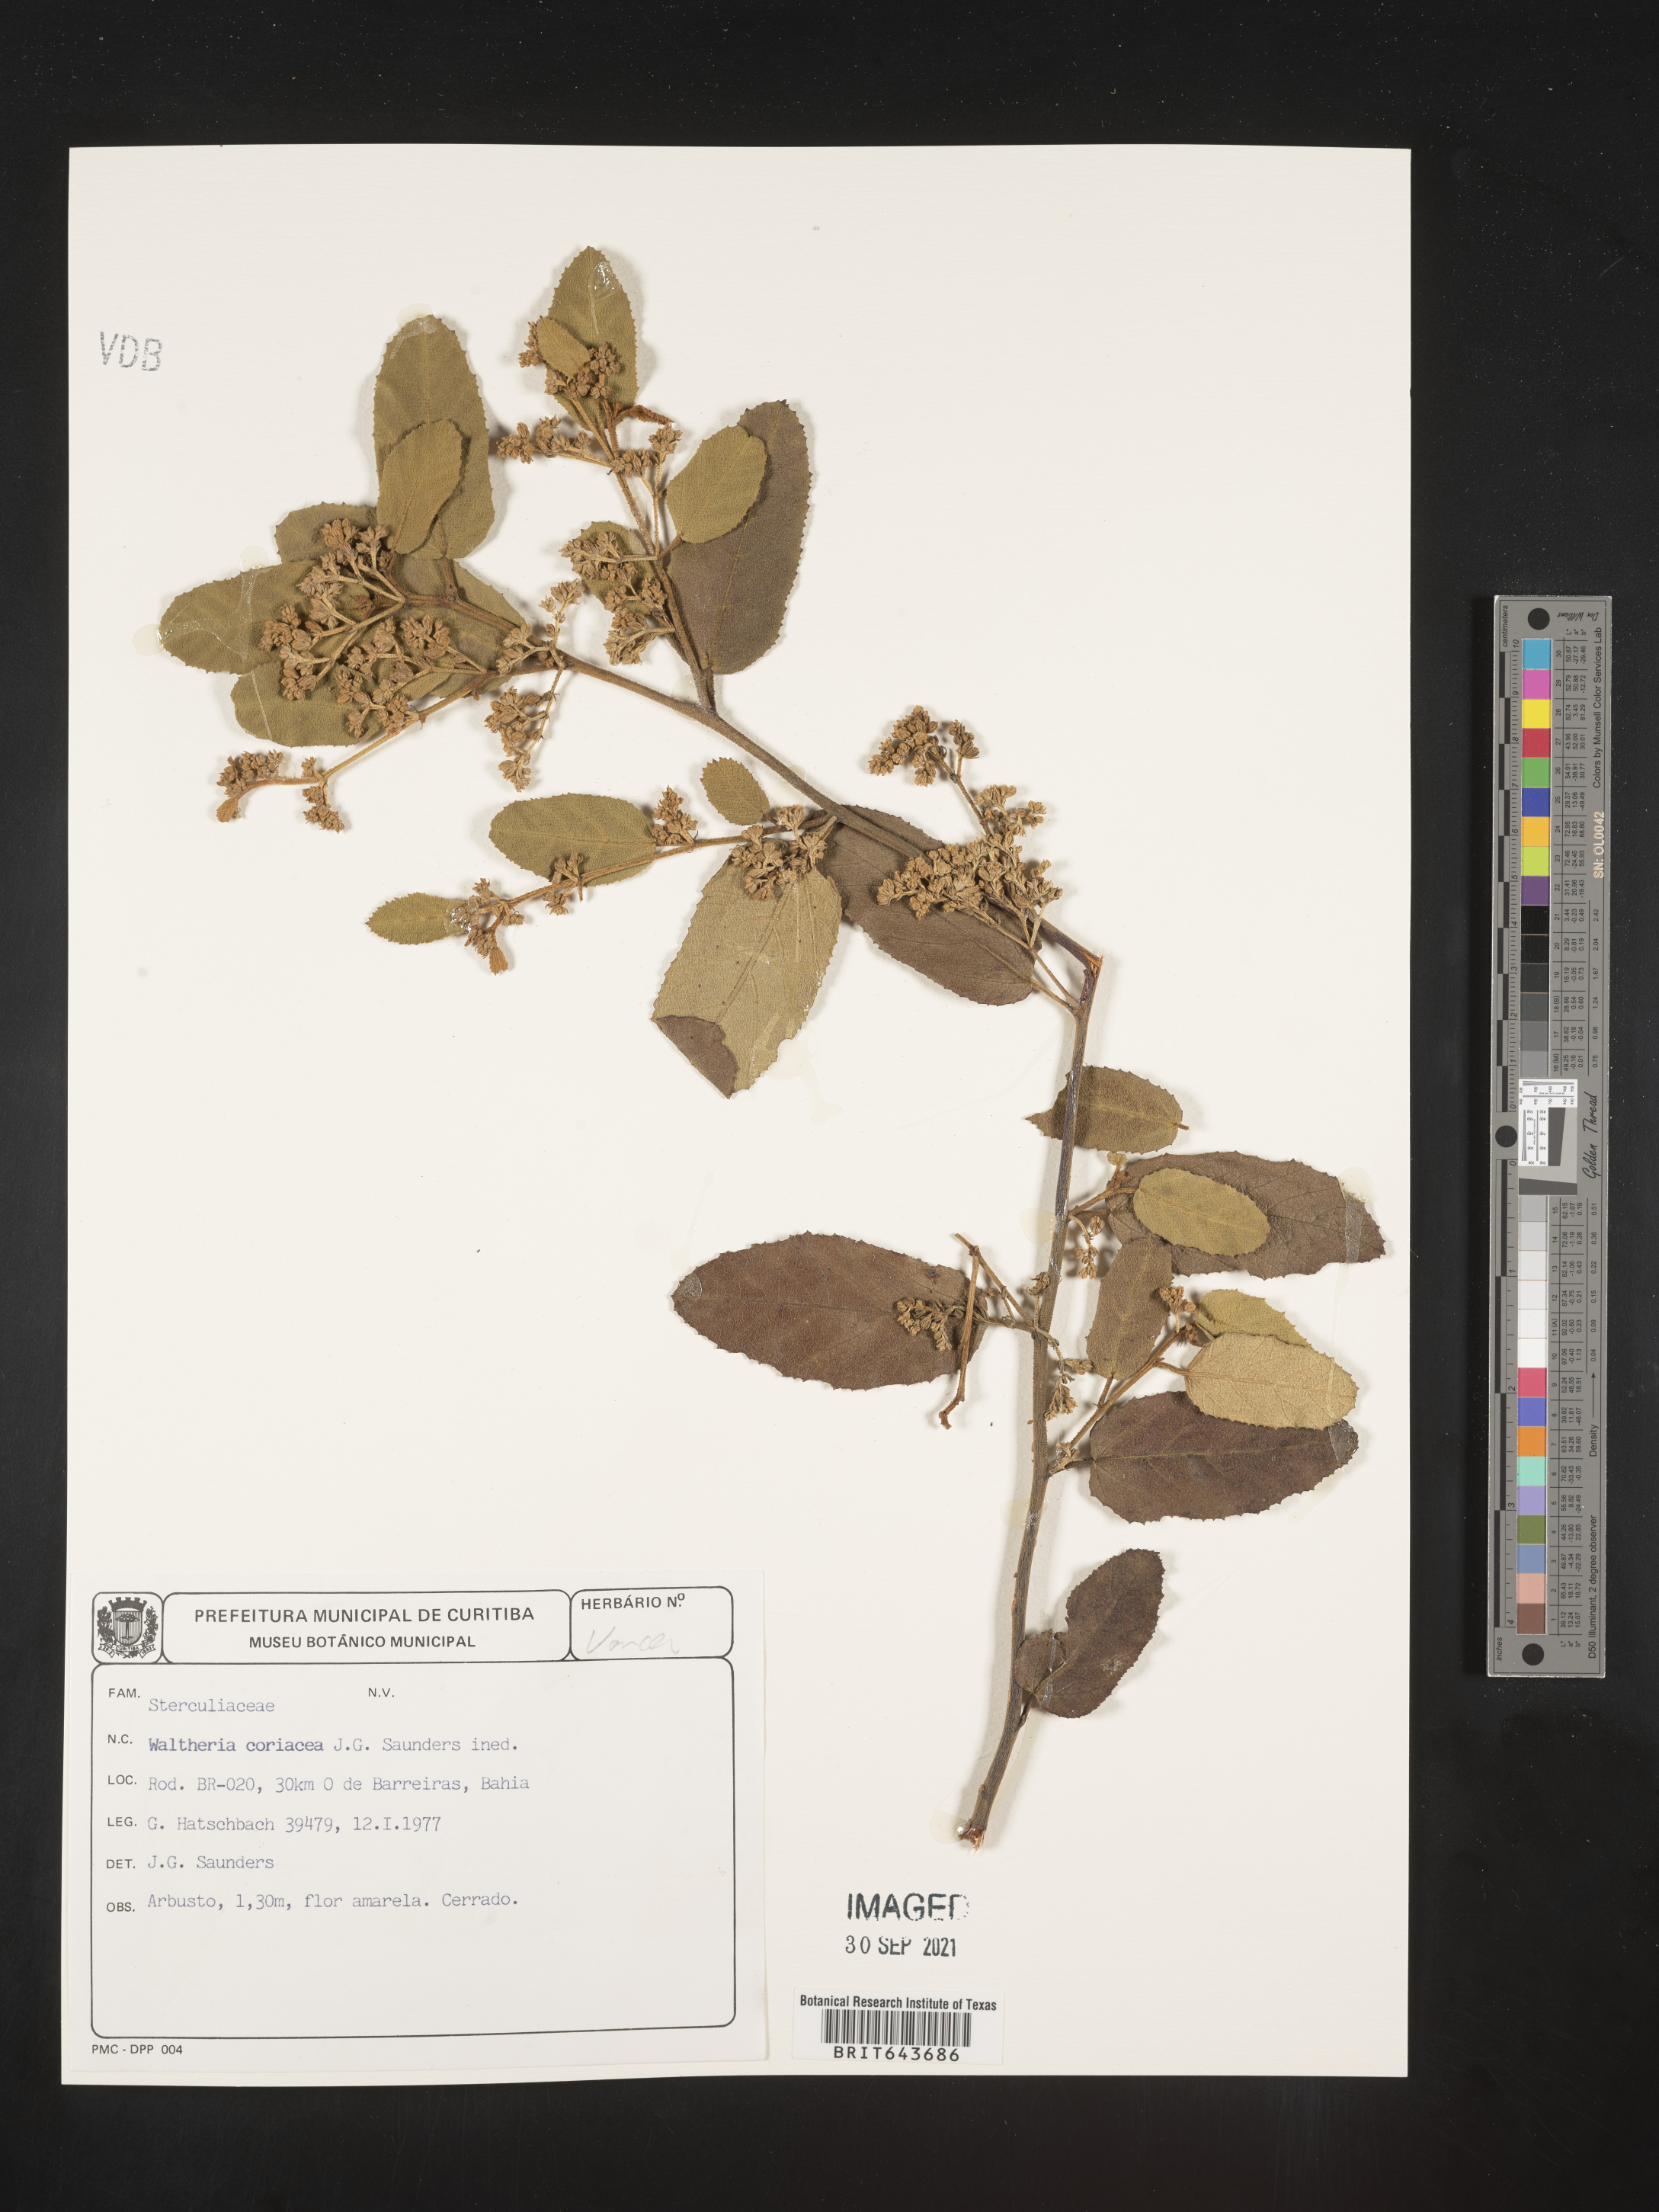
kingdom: Plantae
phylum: Tracheophyta
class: Magnoliopsida
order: Malvales
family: Malvaceae
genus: Waltheria
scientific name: Waltheria
